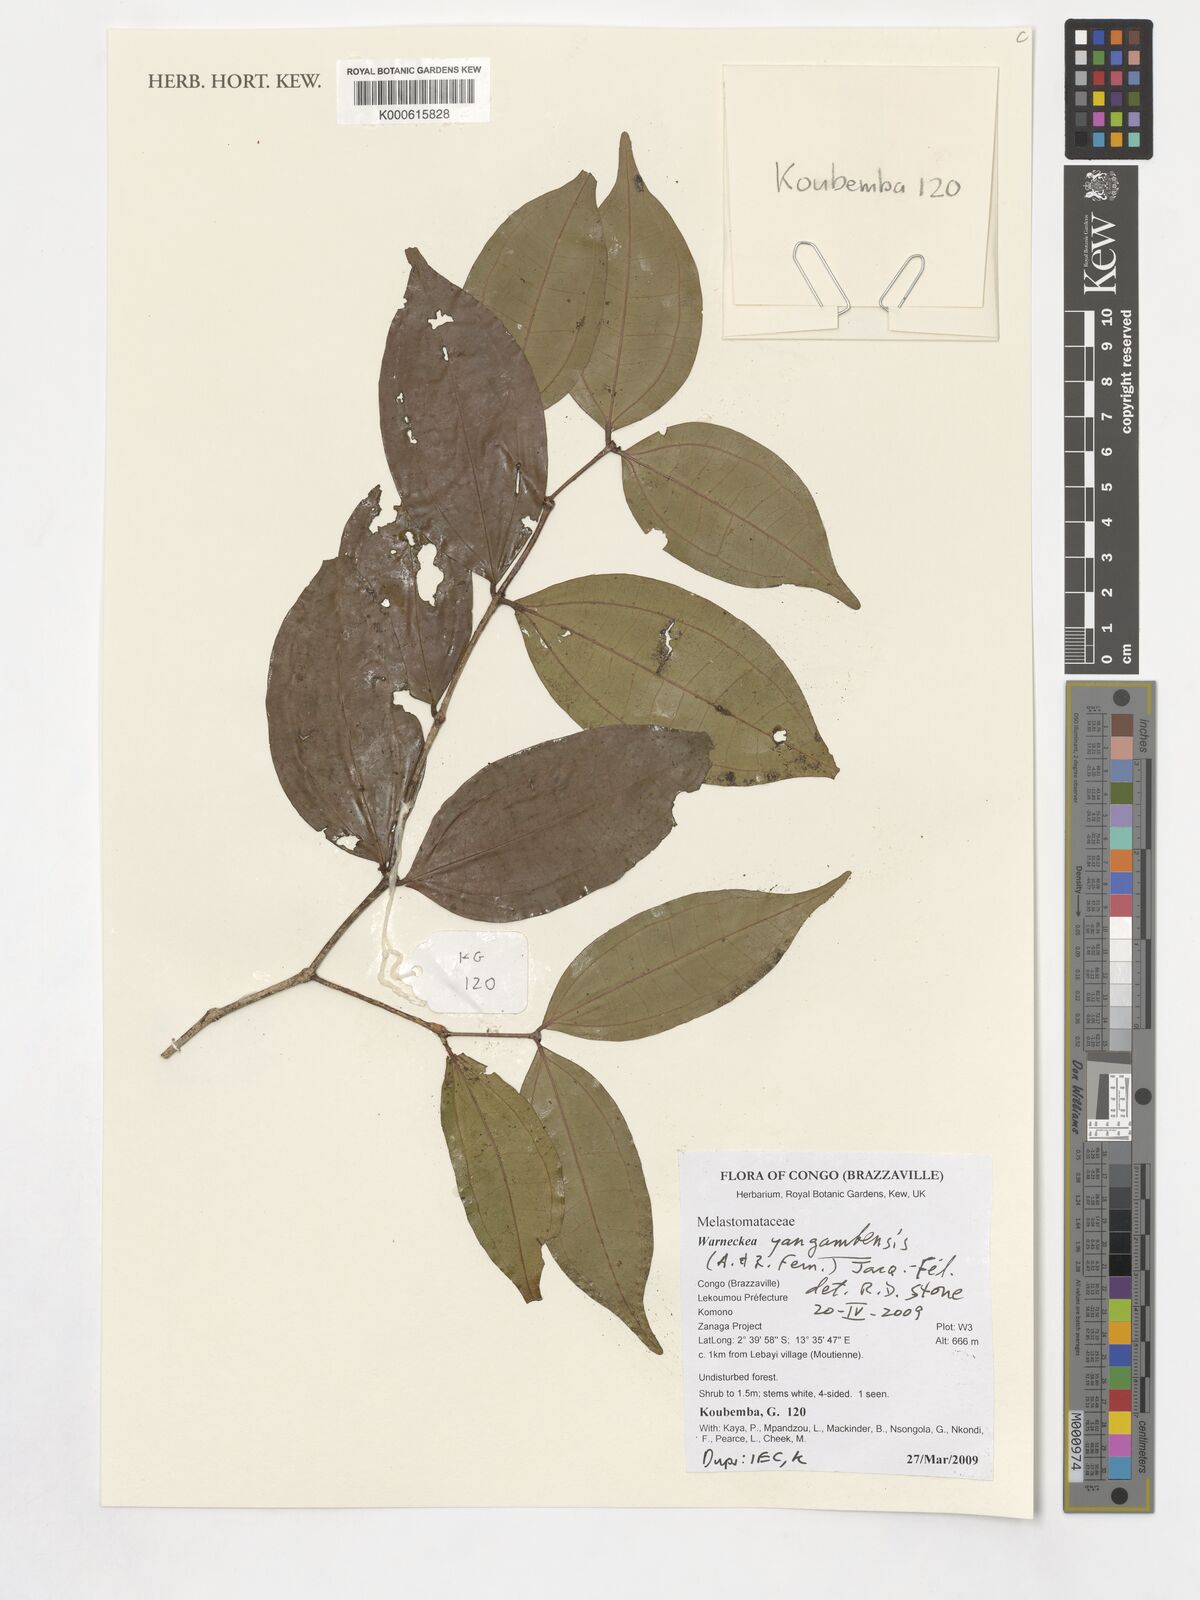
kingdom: Plantae
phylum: Tracheophyta
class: Magnoliopsida
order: Myrtales
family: Melastomataceae
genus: Warneckea
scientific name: Warneckea yangambensis
